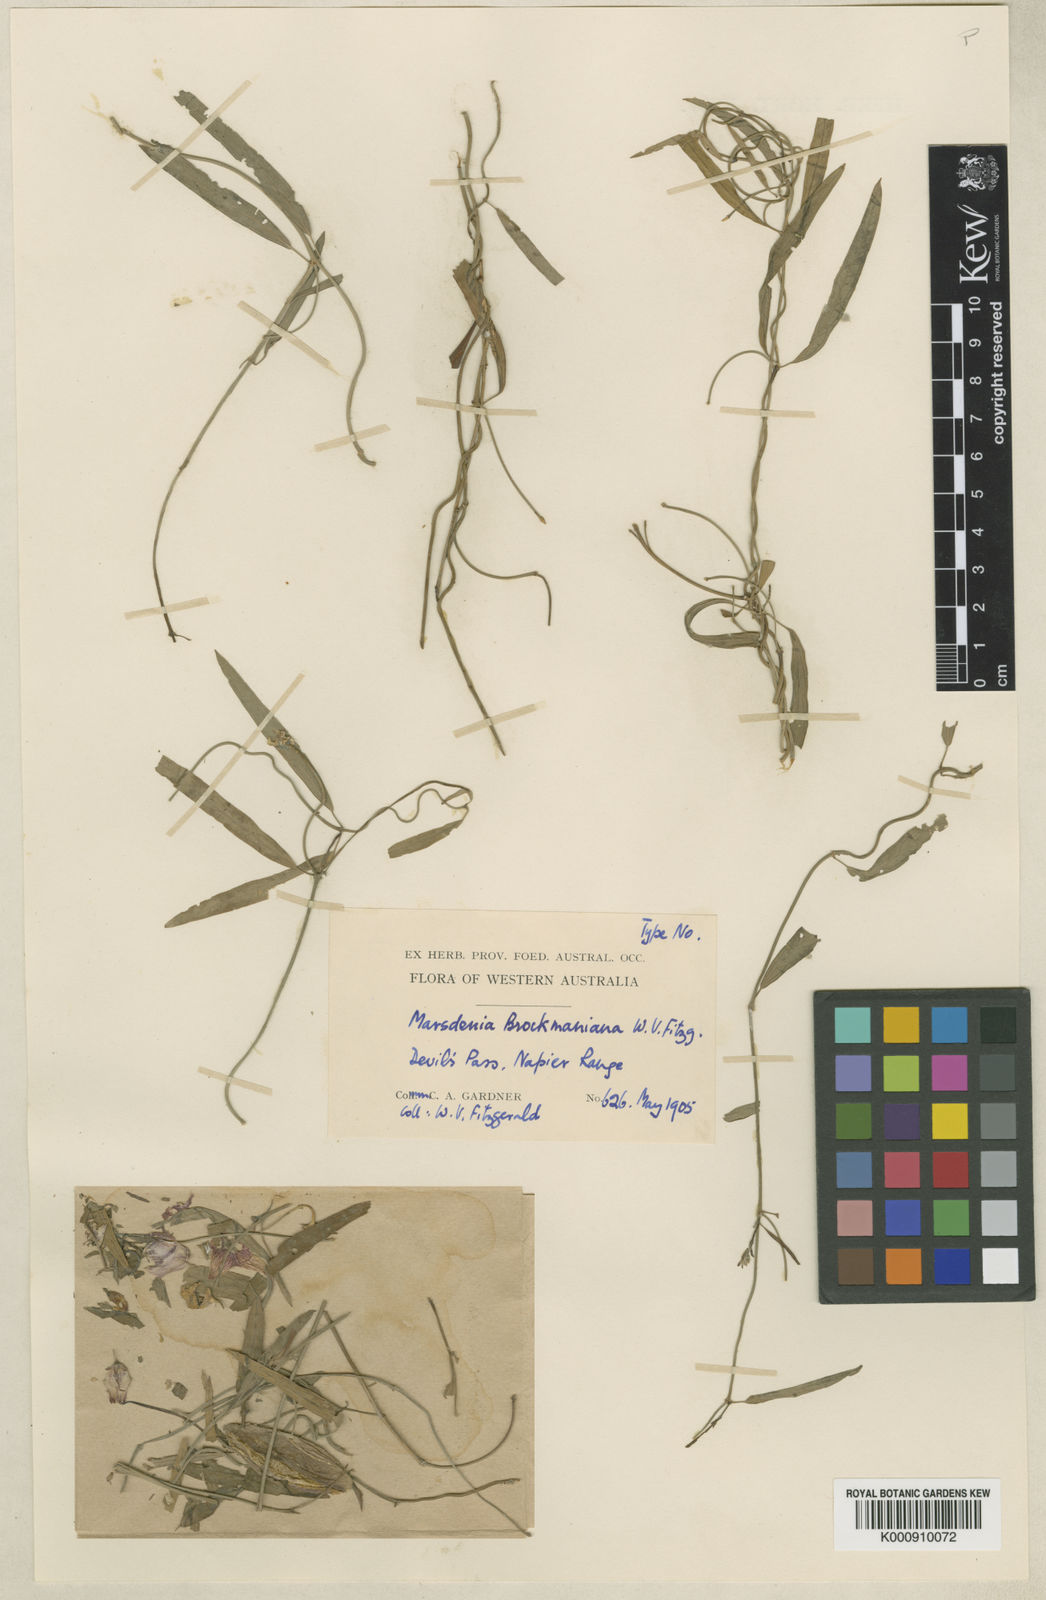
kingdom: Plantae
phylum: Tracheophyta
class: Magnoliopsida
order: Gentianales
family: Apocynaceae
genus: Oxystelma
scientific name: Oxystelma wallichii
